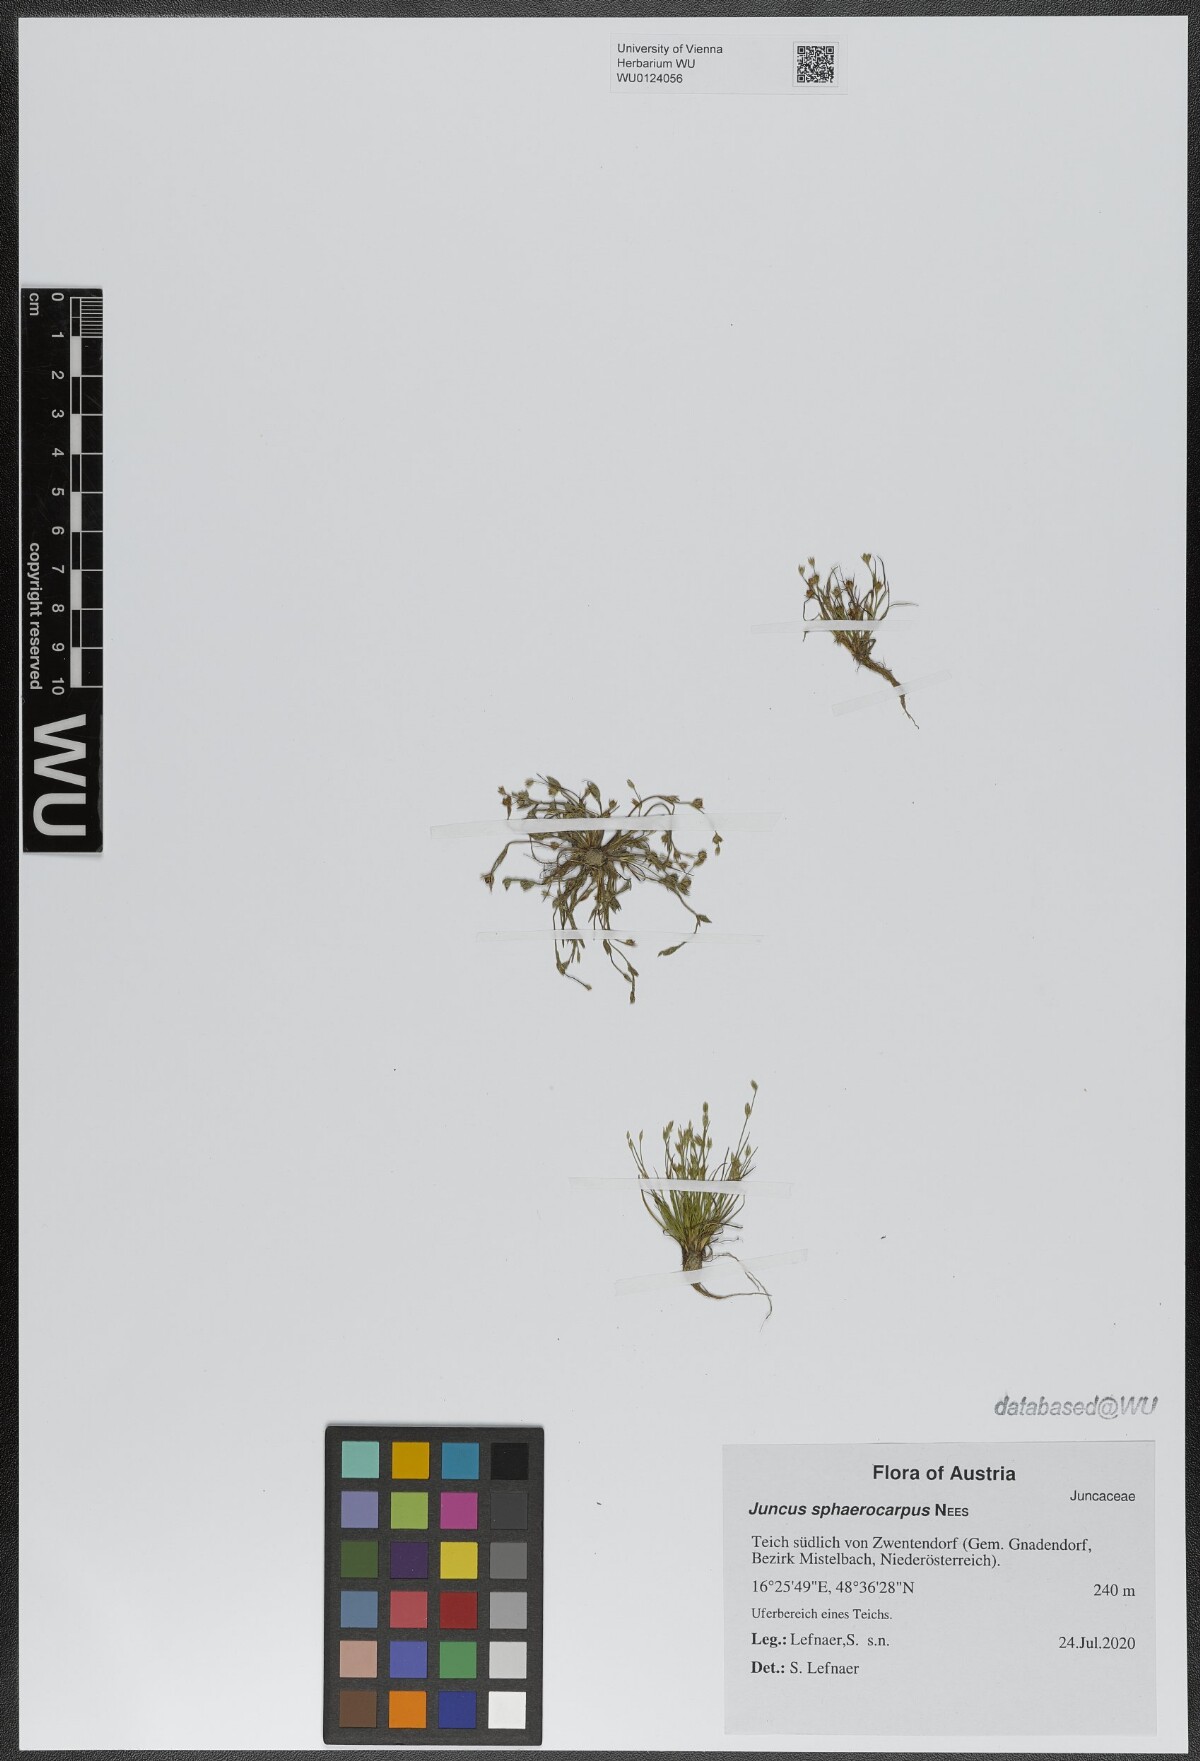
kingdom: Plantae
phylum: Tracheophyta
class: Liliopsida
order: Poales
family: Juncaceae
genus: Juncus
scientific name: Juncus sphaerocarpus
